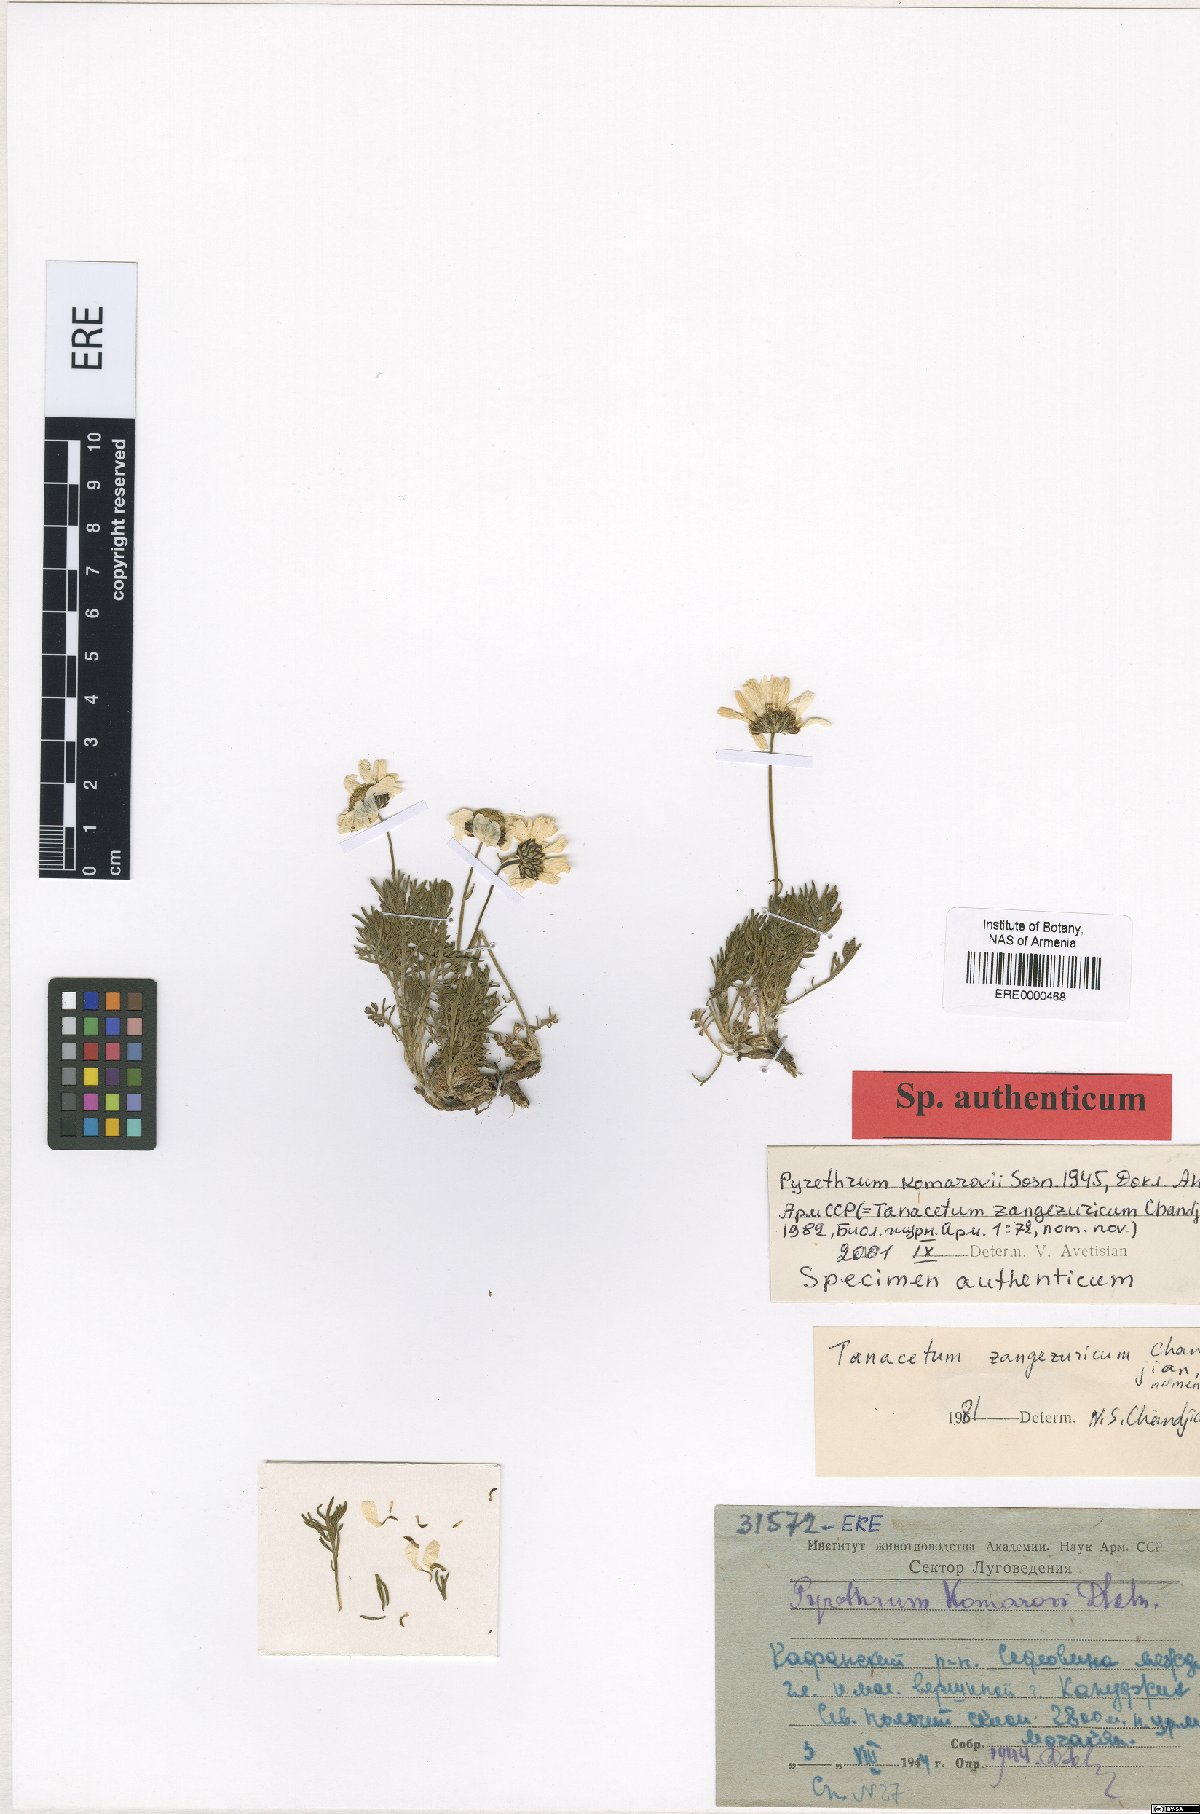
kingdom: Plantae
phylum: Tracheophyta
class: Magnoliopsida
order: Asterales
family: Asteraceae
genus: Tanacetum
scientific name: Tanacetum zangezuricum
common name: Zangezurian tansy
